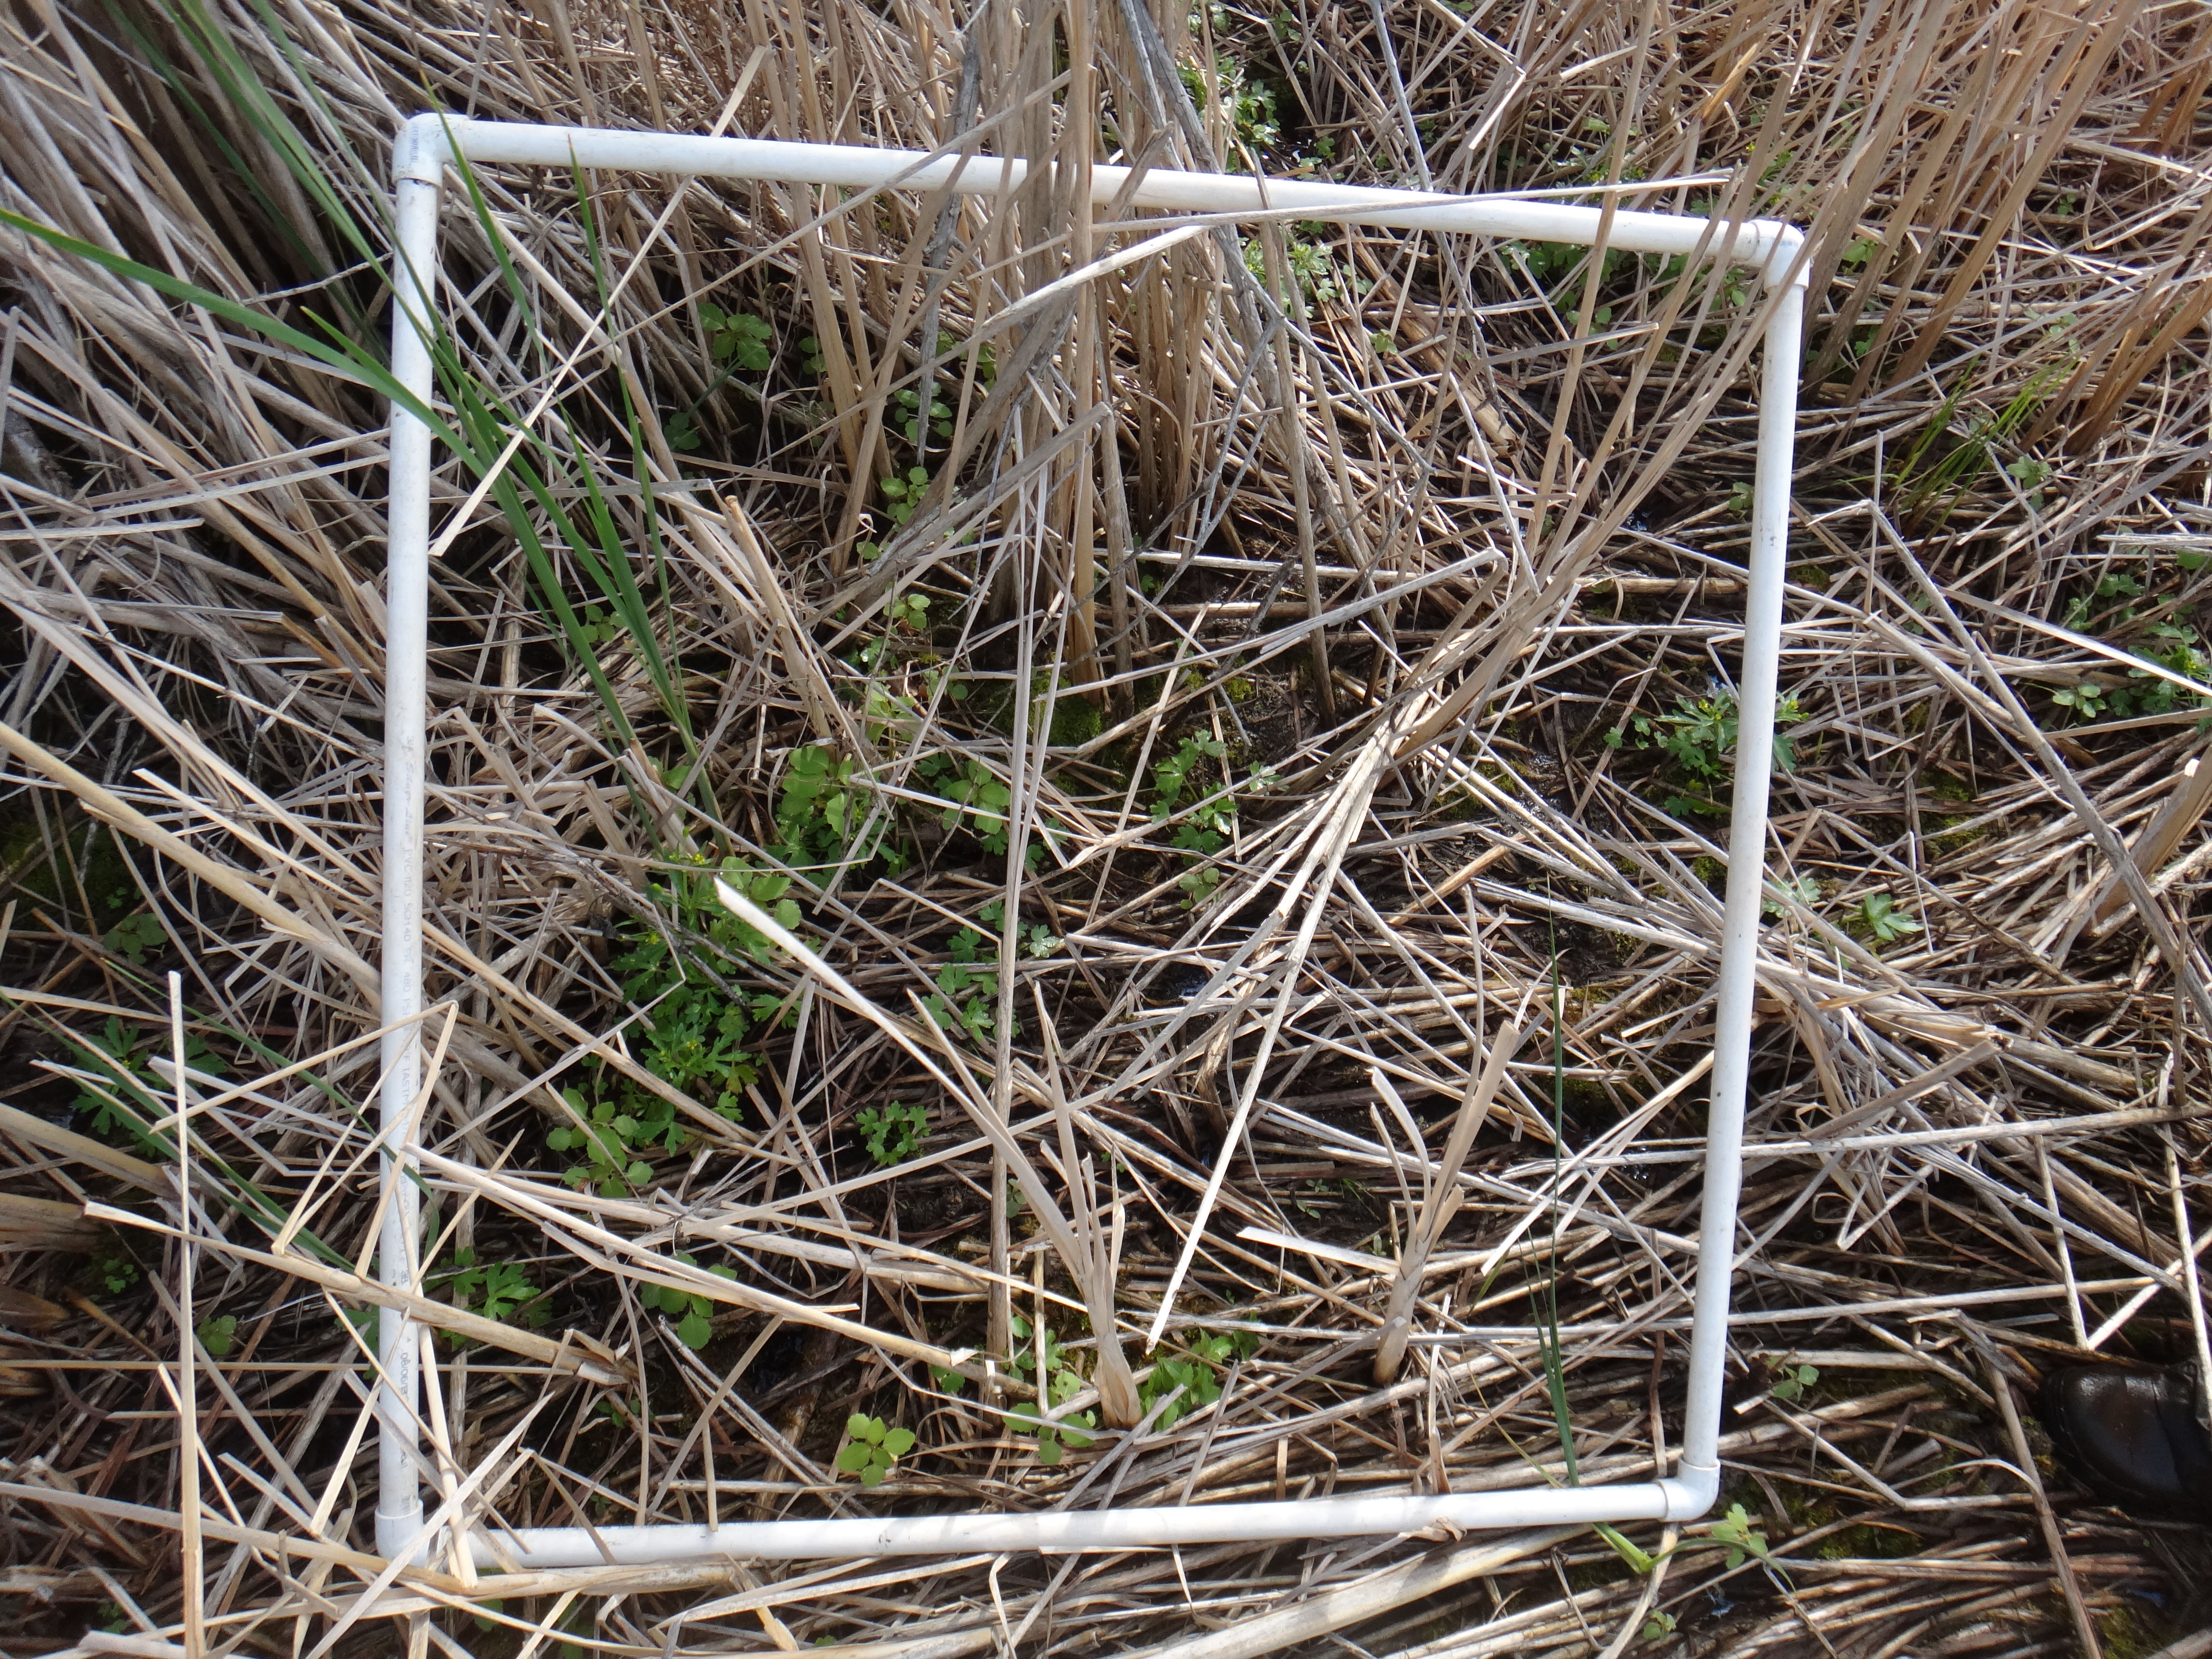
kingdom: Plantae
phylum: Tracheophyta
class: Magnoliopsida
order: Lamiales
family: Verbenaceae
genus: Verbena
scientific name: Verbena hastata
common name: American blue vervain
